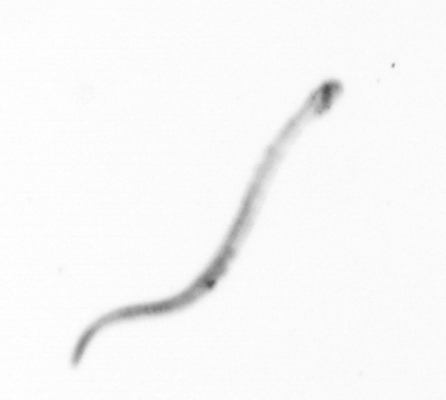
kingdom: Chromista
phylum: Ochrophyta
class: Bacillariophyceae
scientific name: Bacillariophyceae
